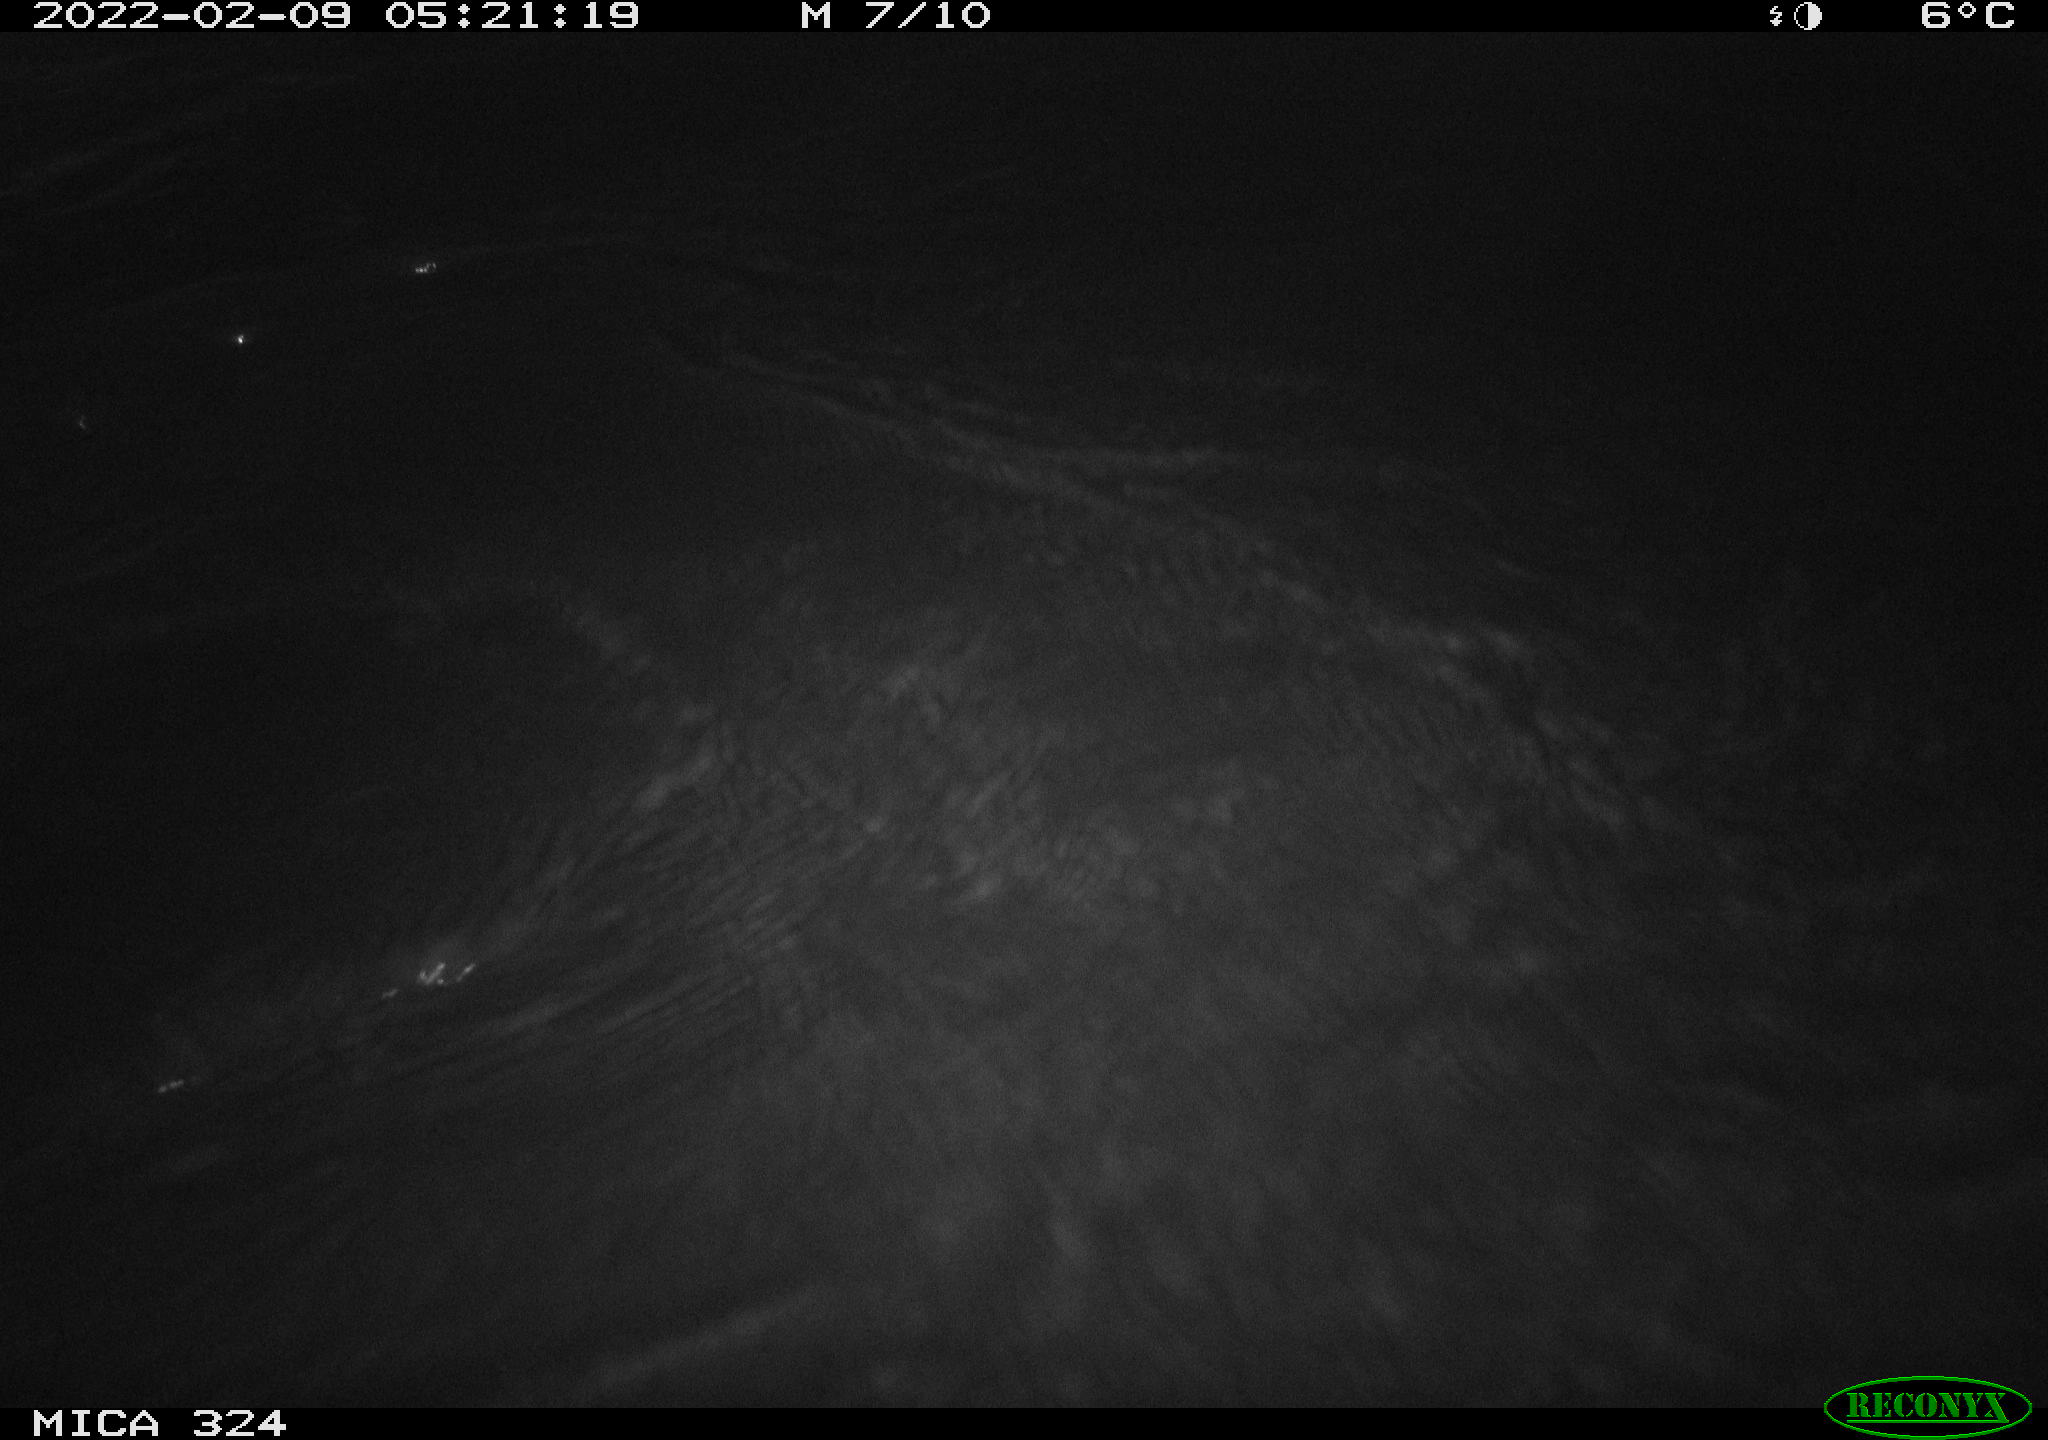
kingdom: Animalia
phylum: Chordata
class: Mammalia
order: Rodentia
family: Cricetidae
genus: Ondatra
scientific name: Ondatra zibethicus
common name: Muskrat
